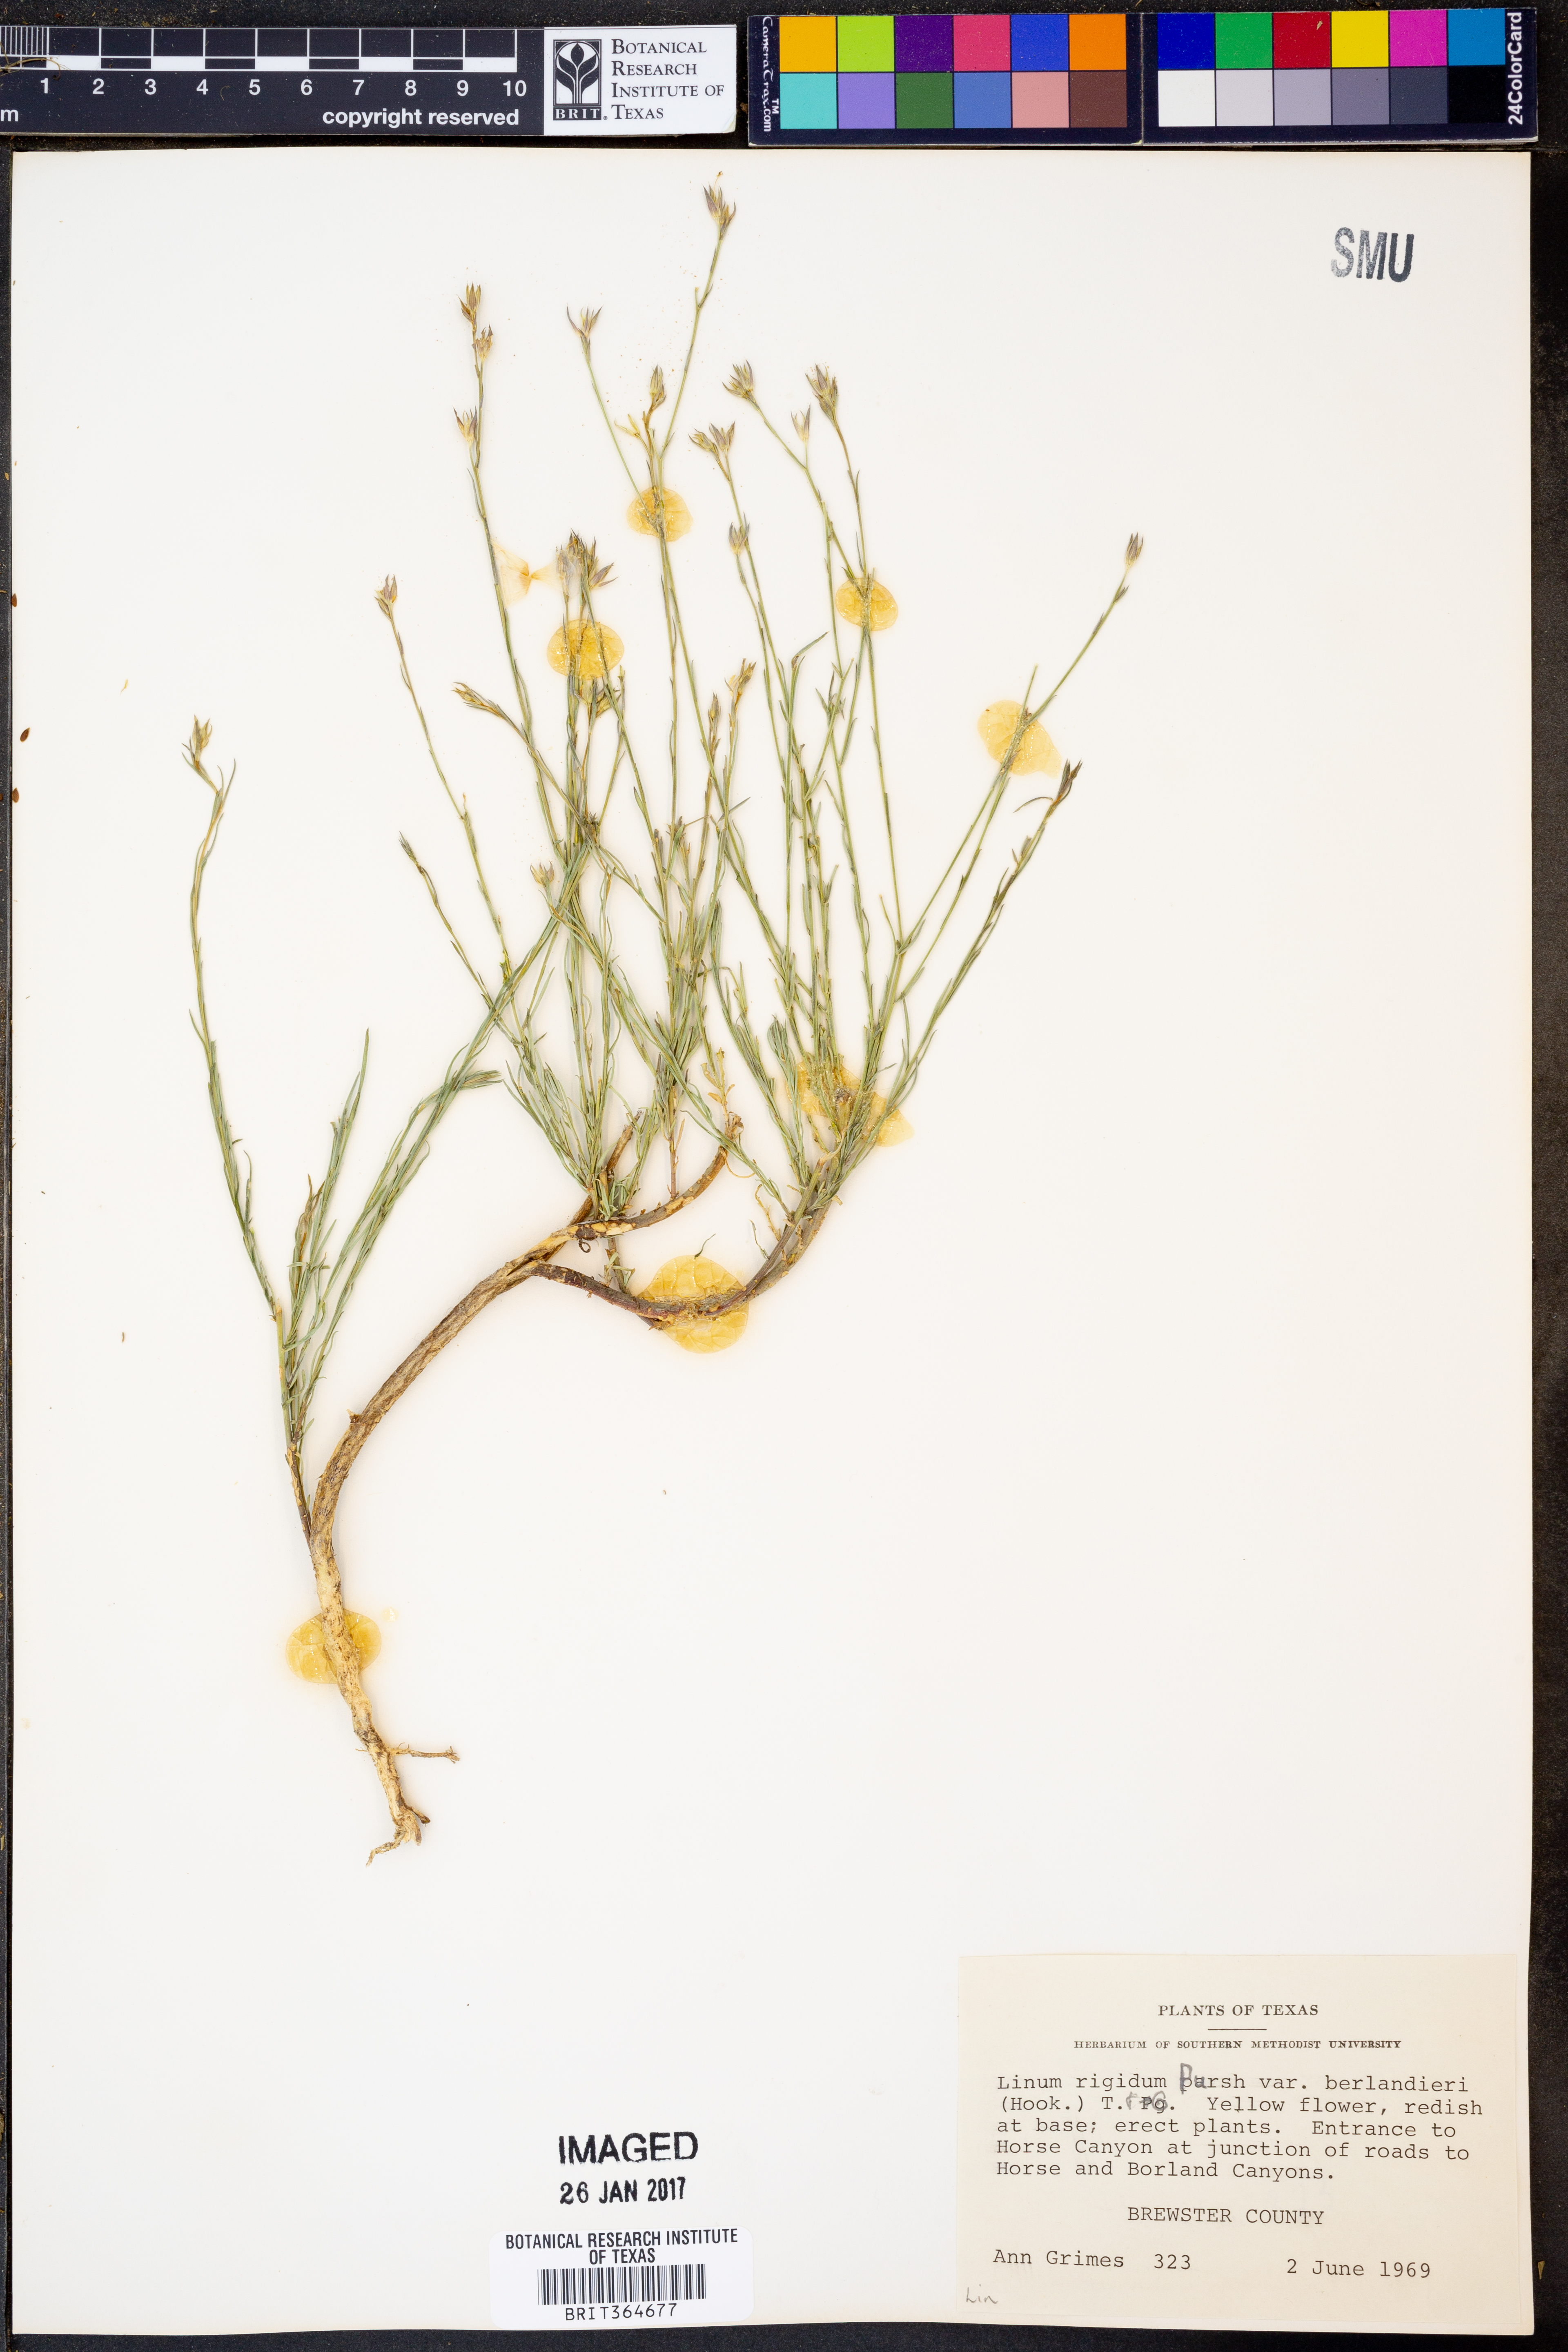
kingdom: Plantae
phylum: Tracheophyta
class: Magnoliopsida
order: Malpighiales
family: Linaceae
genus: Linum
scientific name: Linum berlandieri
